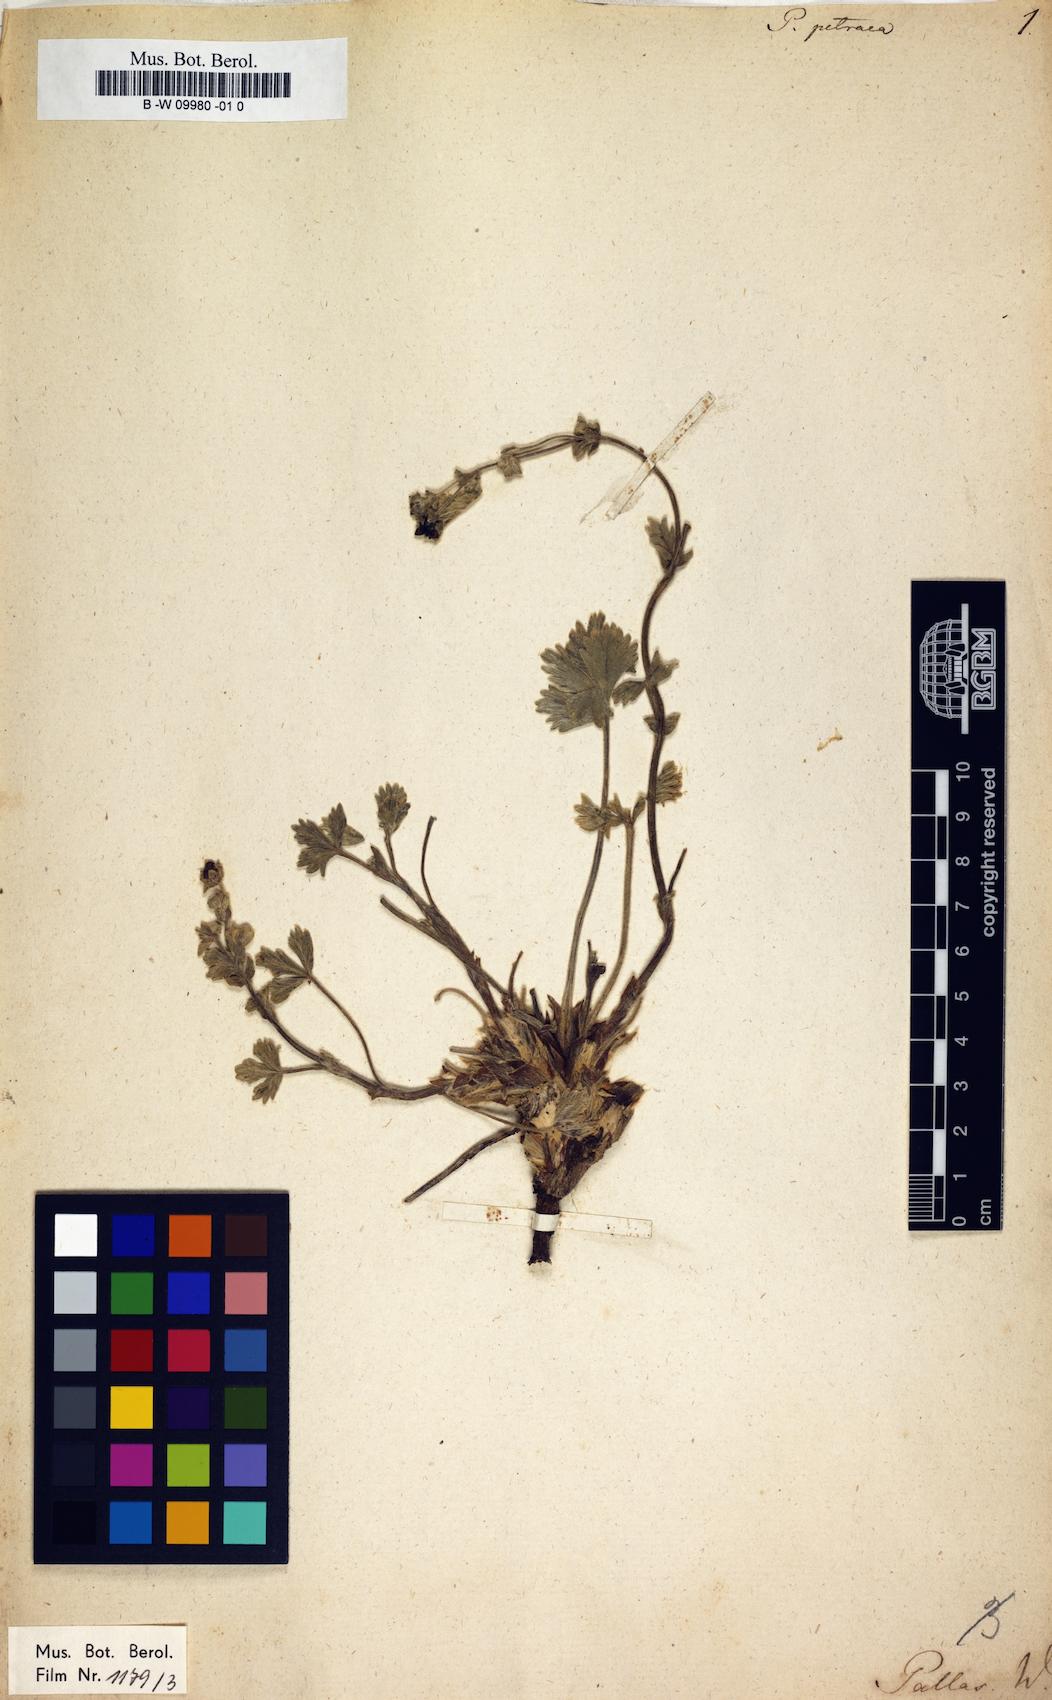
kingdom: Plantae
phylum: Tracheophyta
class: Magnoliopsida
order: Rosales
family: Rosaceae
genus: Potentilla
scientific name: Potentilla petraea
